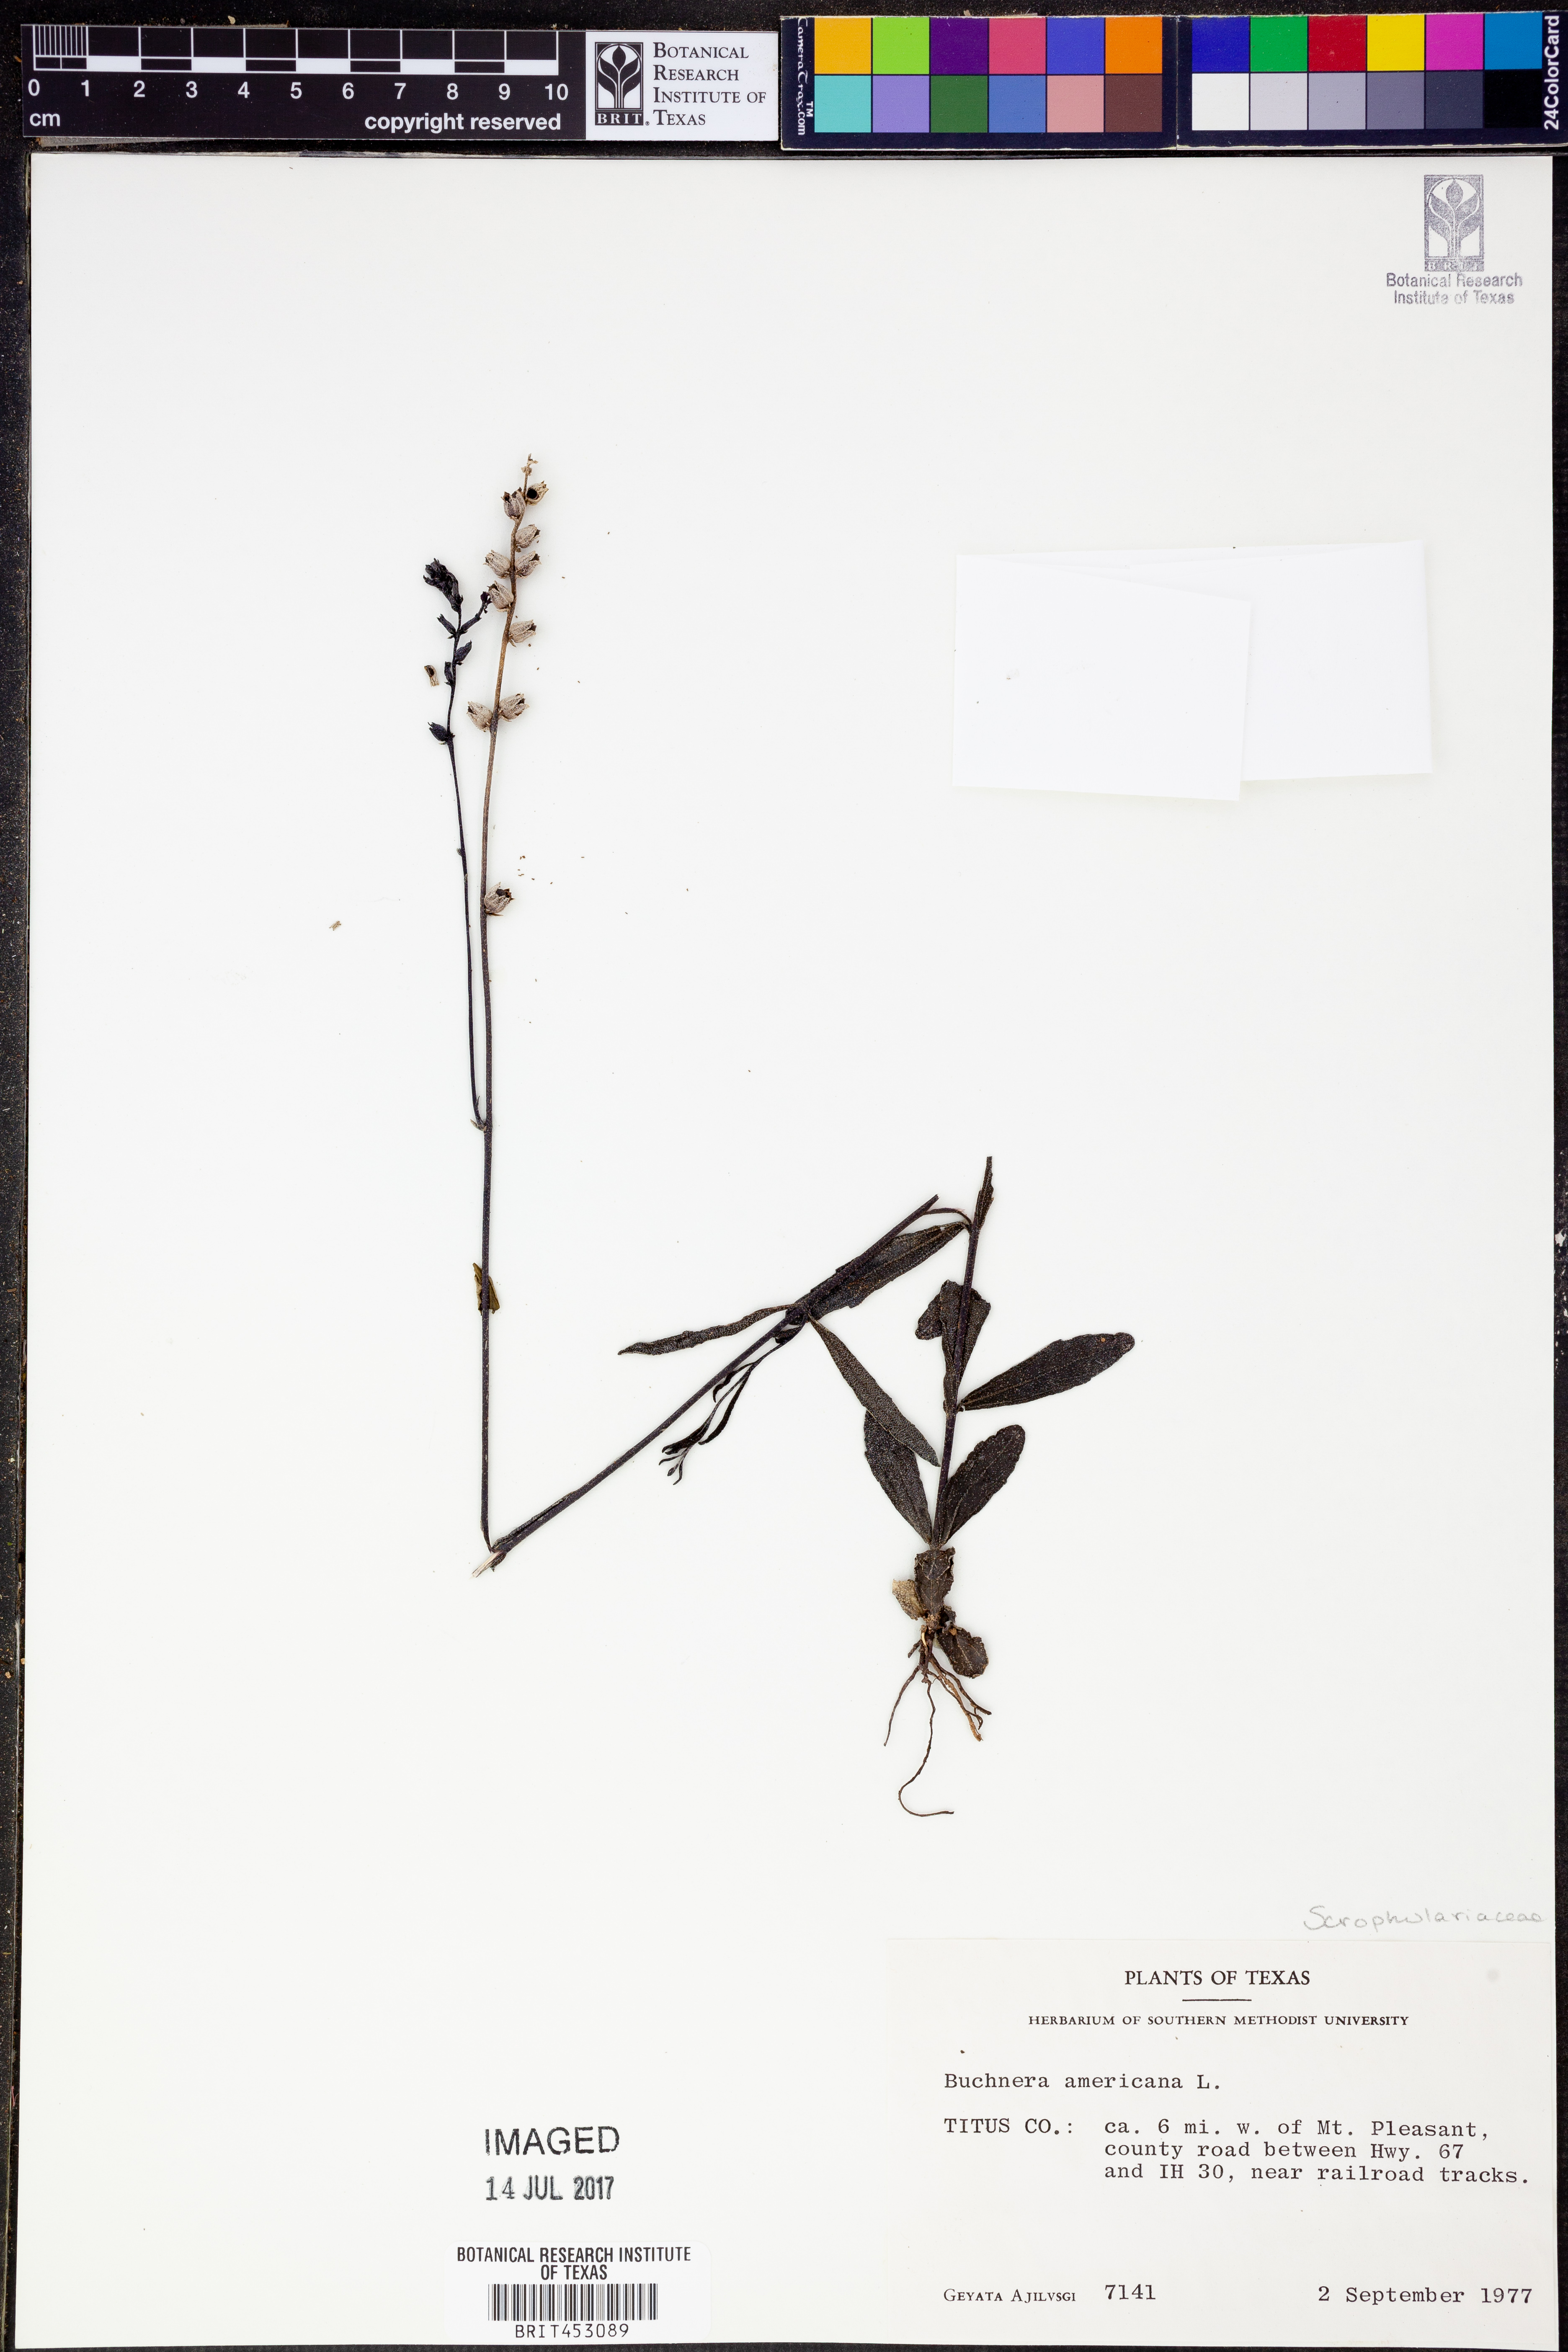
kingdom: Plantae
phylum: Tracheophyta
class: Magnoliopsida
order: Lamiales
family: Orobanchaceae
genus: Buchnera
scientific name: Buchnera americana
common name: American bluehearts
